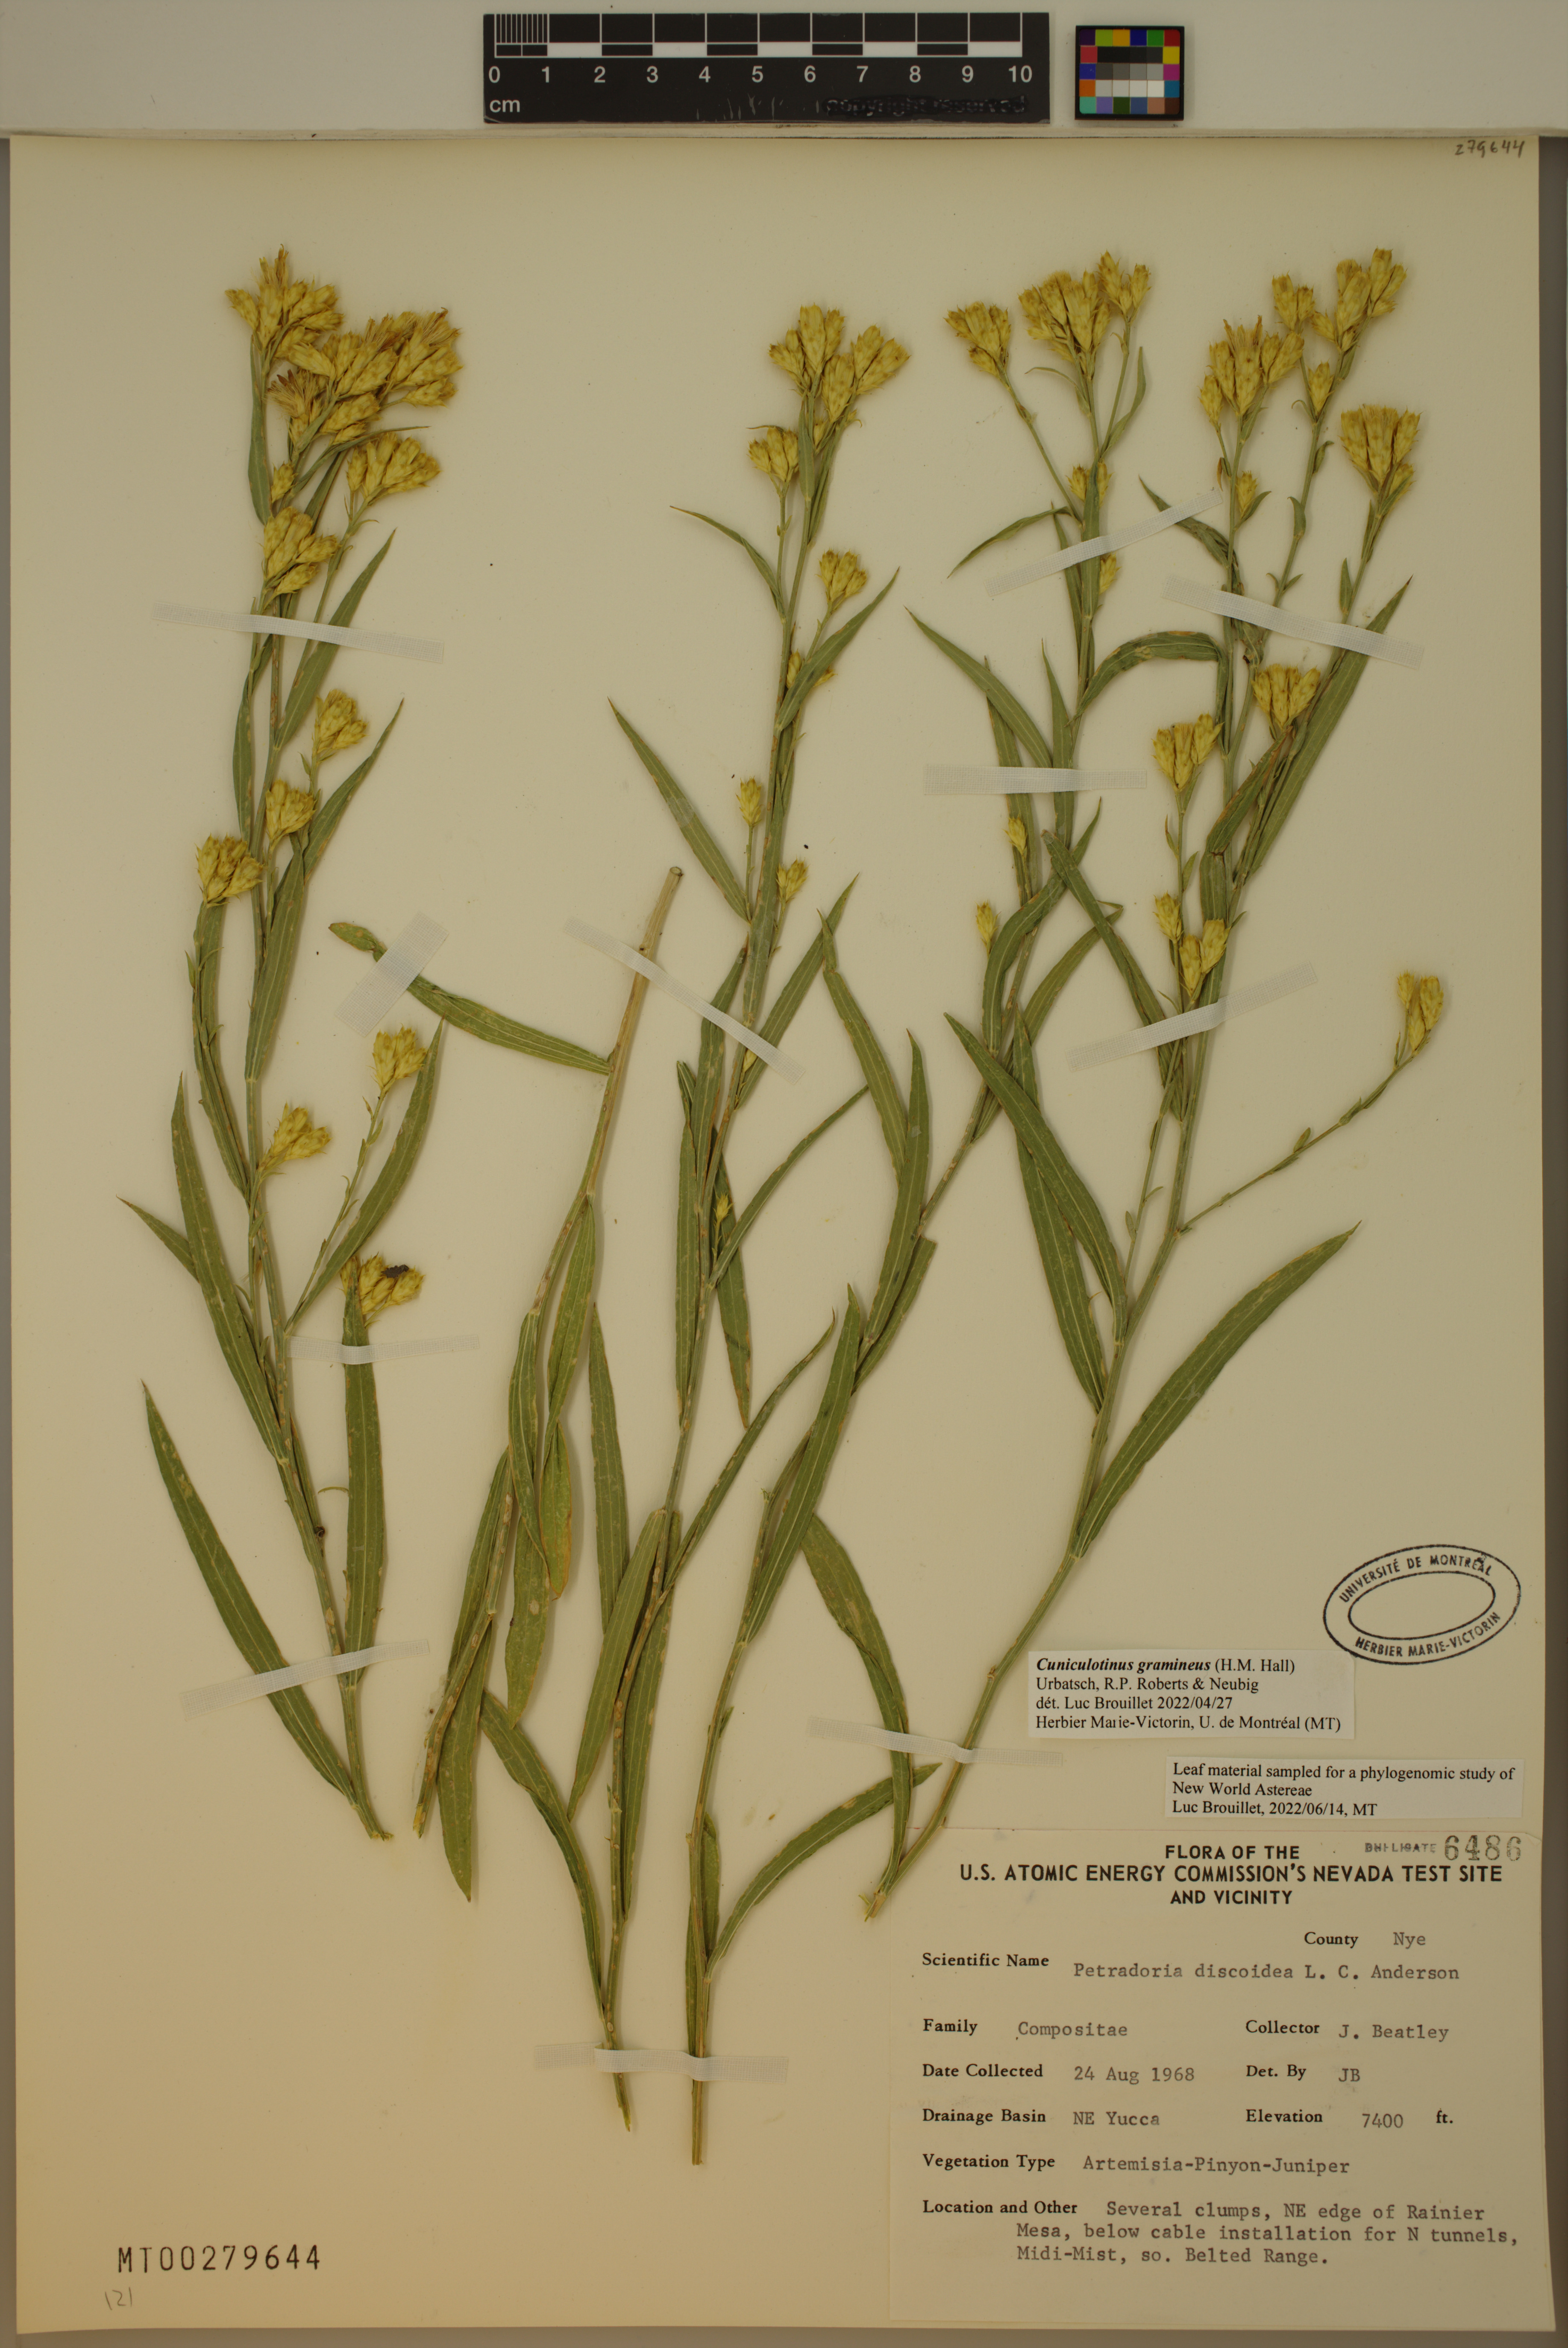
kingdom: Plantae
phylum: Tracheophyta
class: Magnoliopsida
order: Asterales
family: Asteraceae
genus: Cuniculotinus
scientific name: Cuniculotinus gramineus
